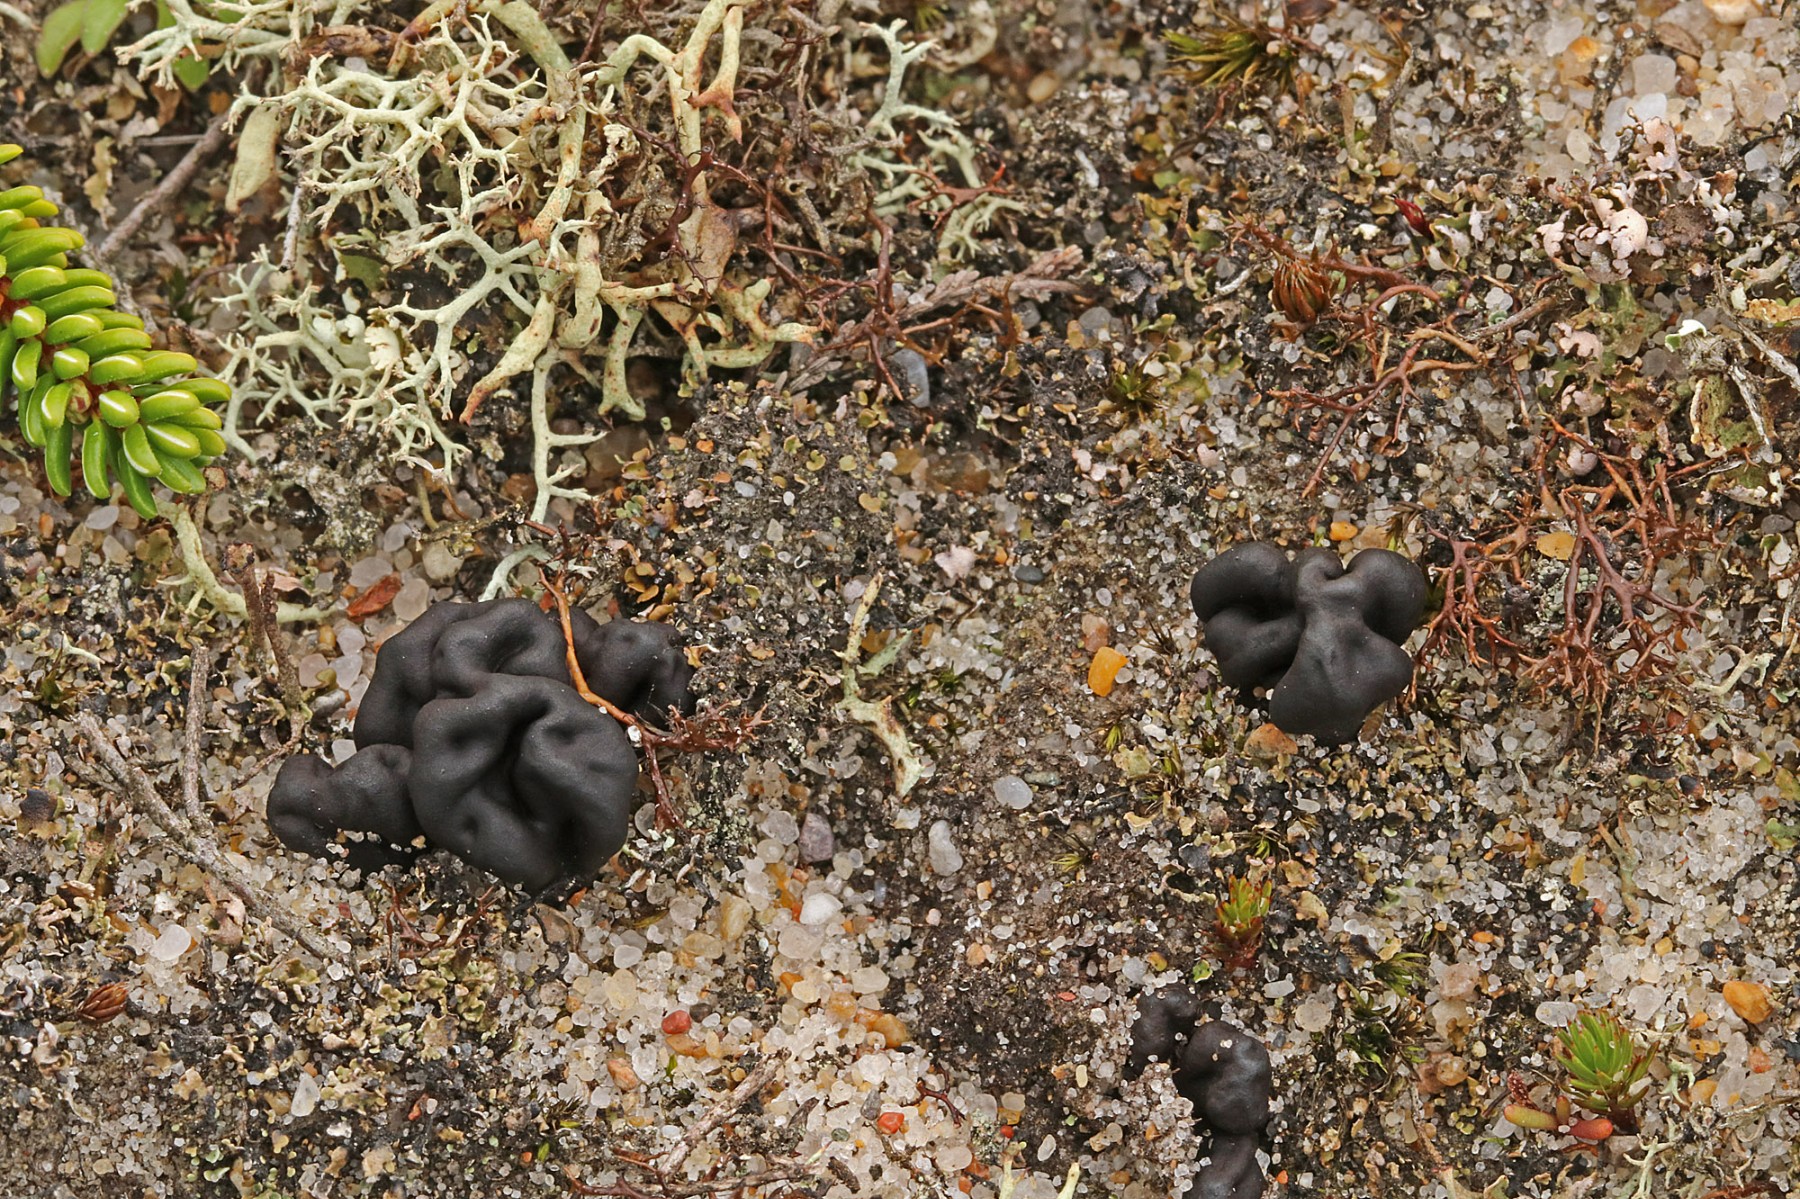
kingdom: Fungi
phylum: Ascomycota
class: Geoglossomycetes
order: Geoglossales
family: Geoglossaceae
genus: Sabuloglossum
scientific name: Sabuloglossum arenarium
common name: klit-jordtunge
